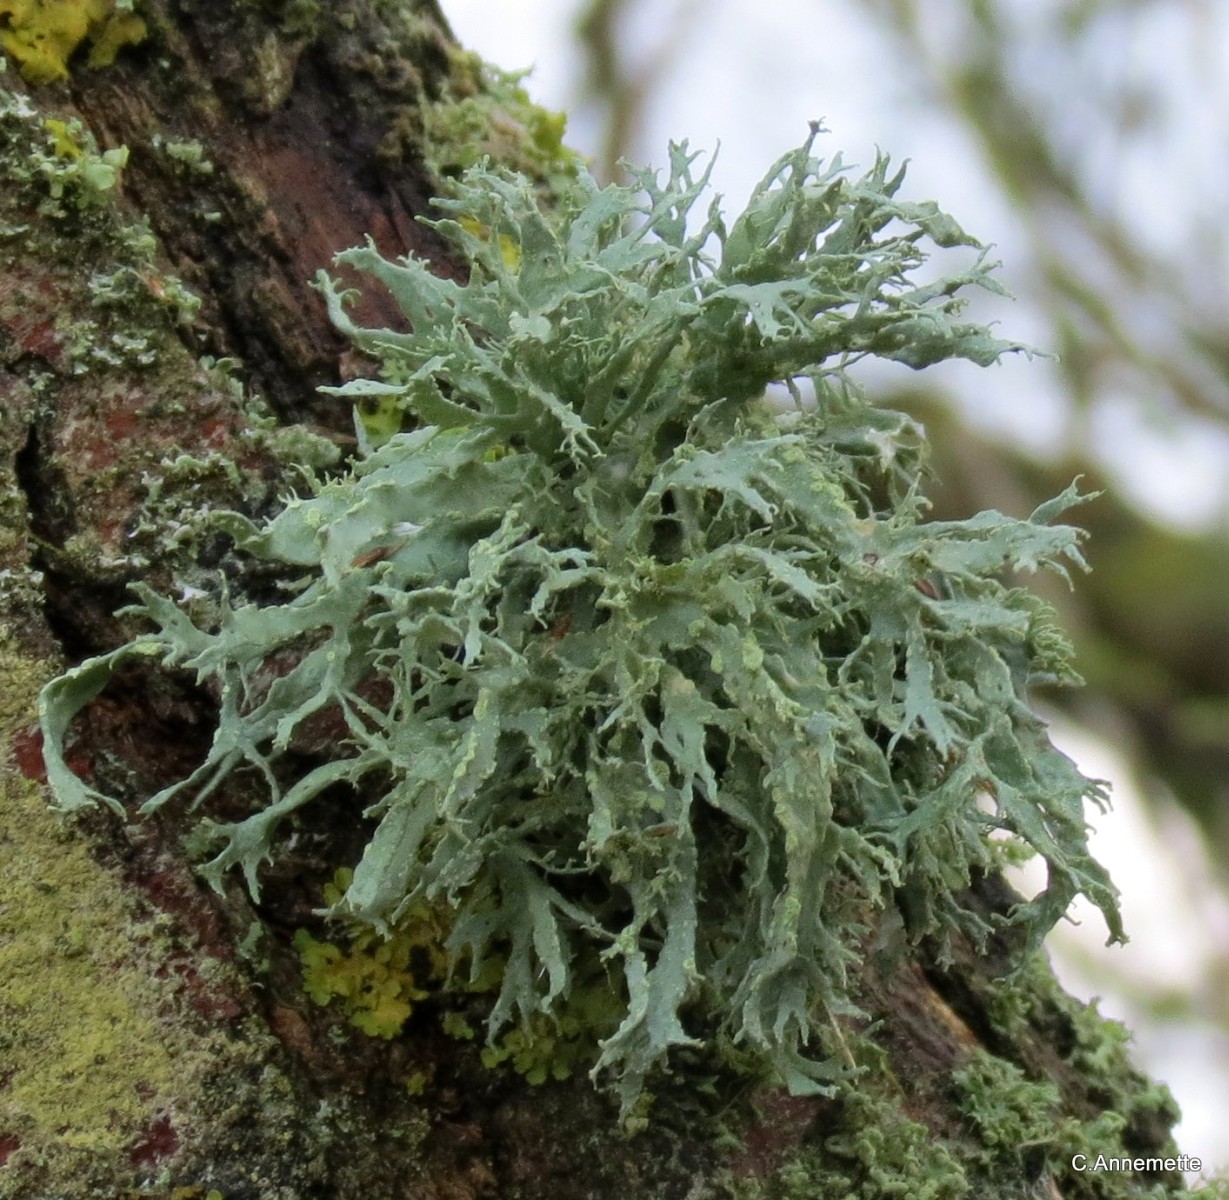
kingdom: Fungi
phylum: Ascomycota
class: Lecanoromycetes
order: Lecanorales
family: Ramalinaceae
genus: Ramalina
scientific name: Ramalina farinacea
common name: melet grenlav
